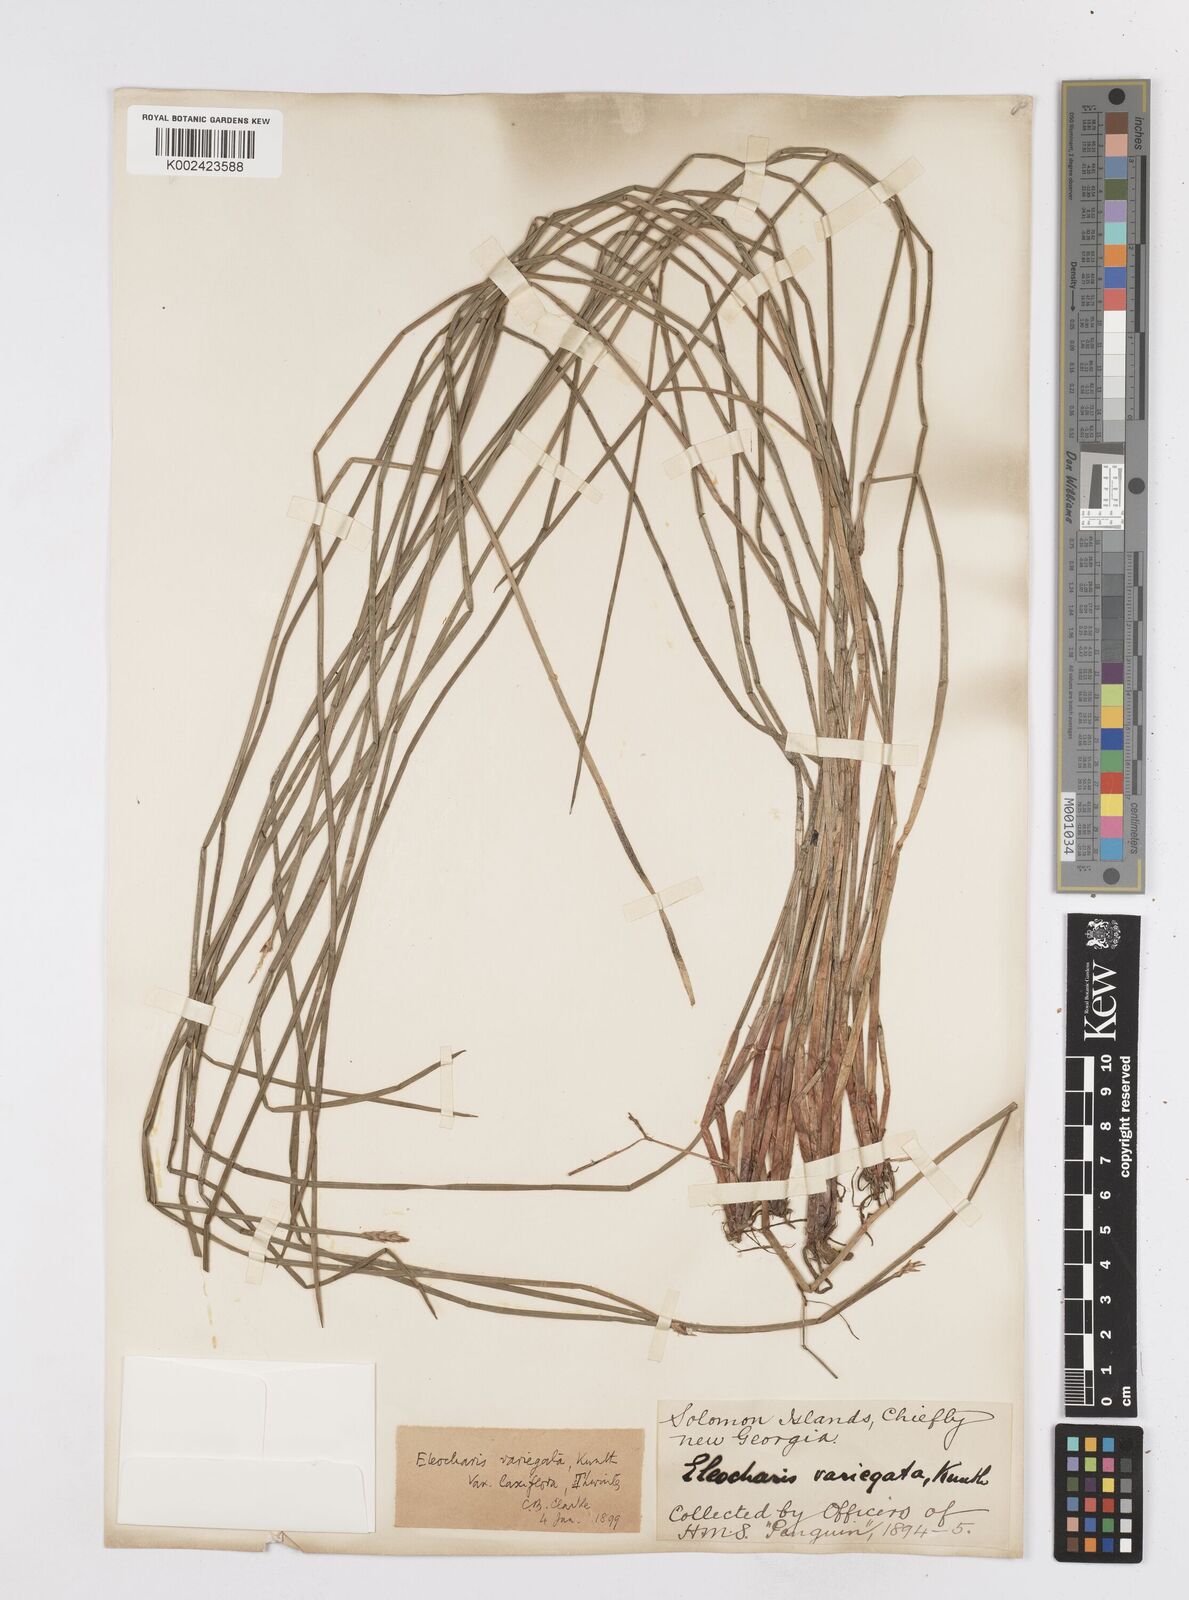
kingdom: Plantae
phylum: Tracheophyta
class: Liliopsida
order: Poales
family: Cyperaceae
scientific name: Cyperaceae
